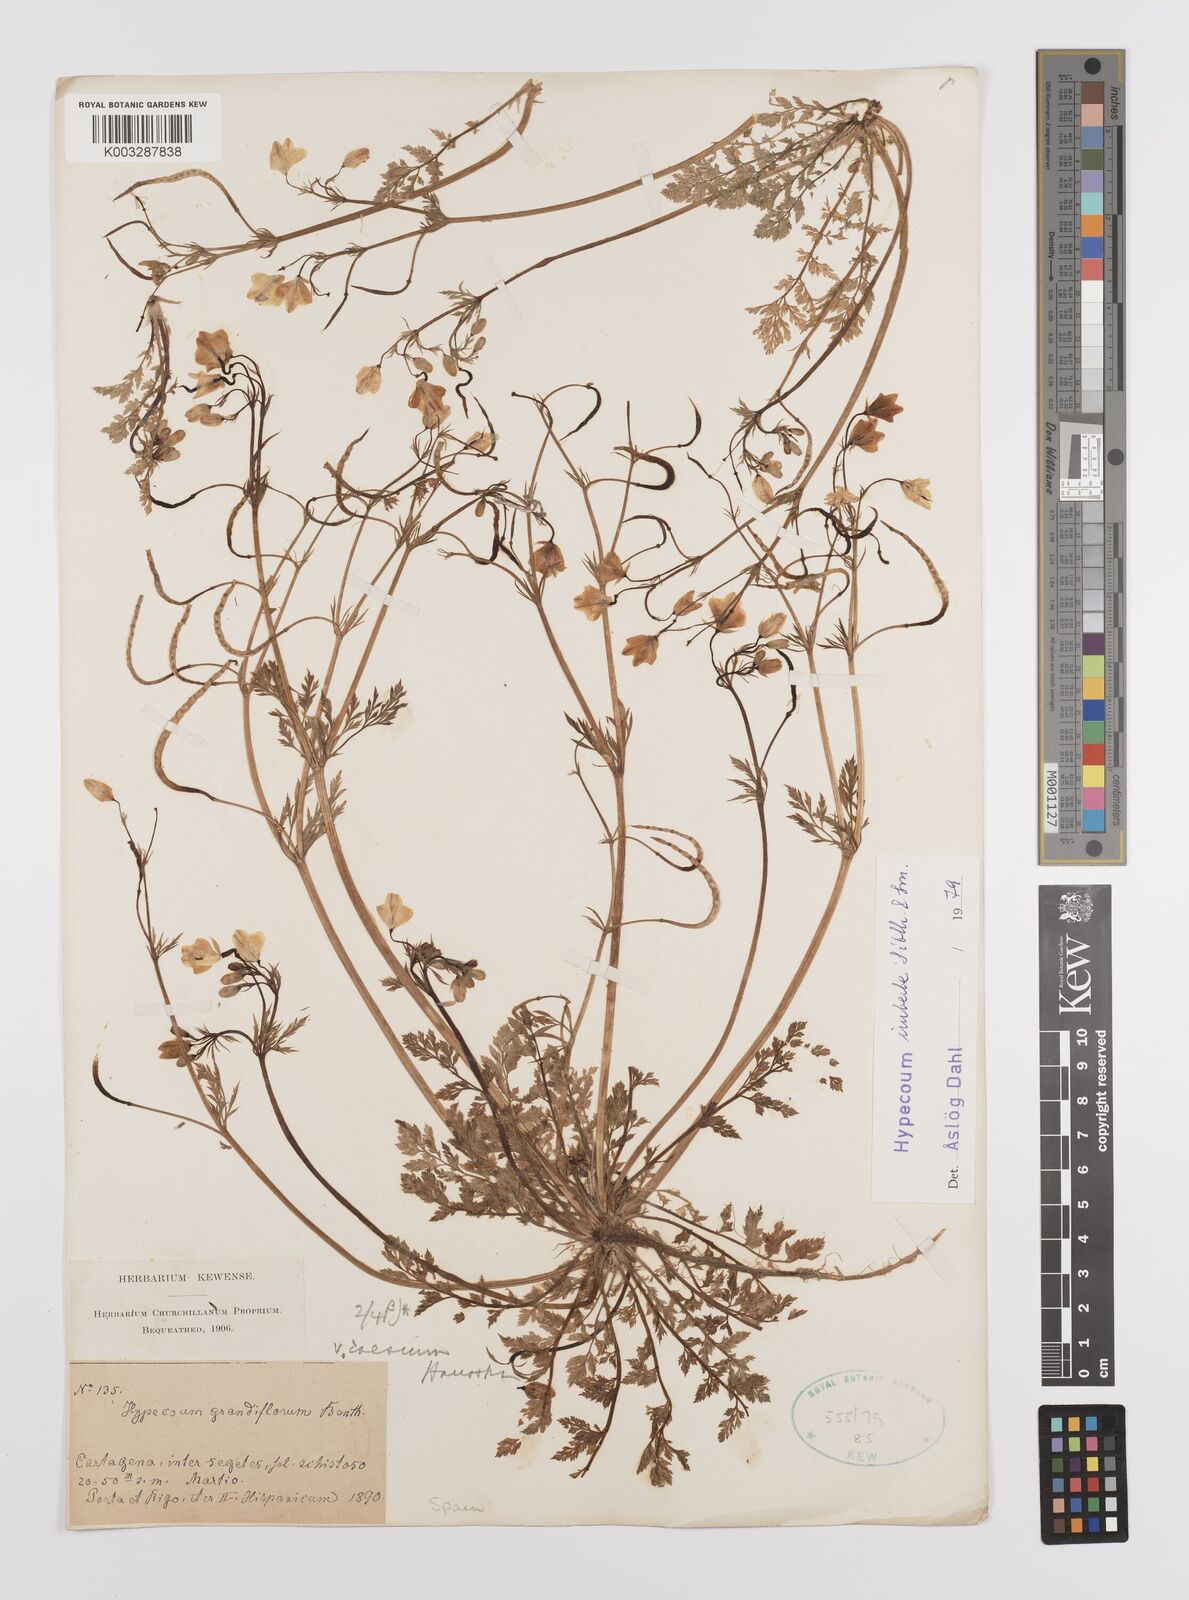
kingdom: Plantae
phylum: Tracheophyta
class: Magnoliopsida
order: Ranunculales
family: Papaveraceae
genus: Hypecoum
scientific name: Hypecoum imberbe
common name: Sicklefruit hypecoum
